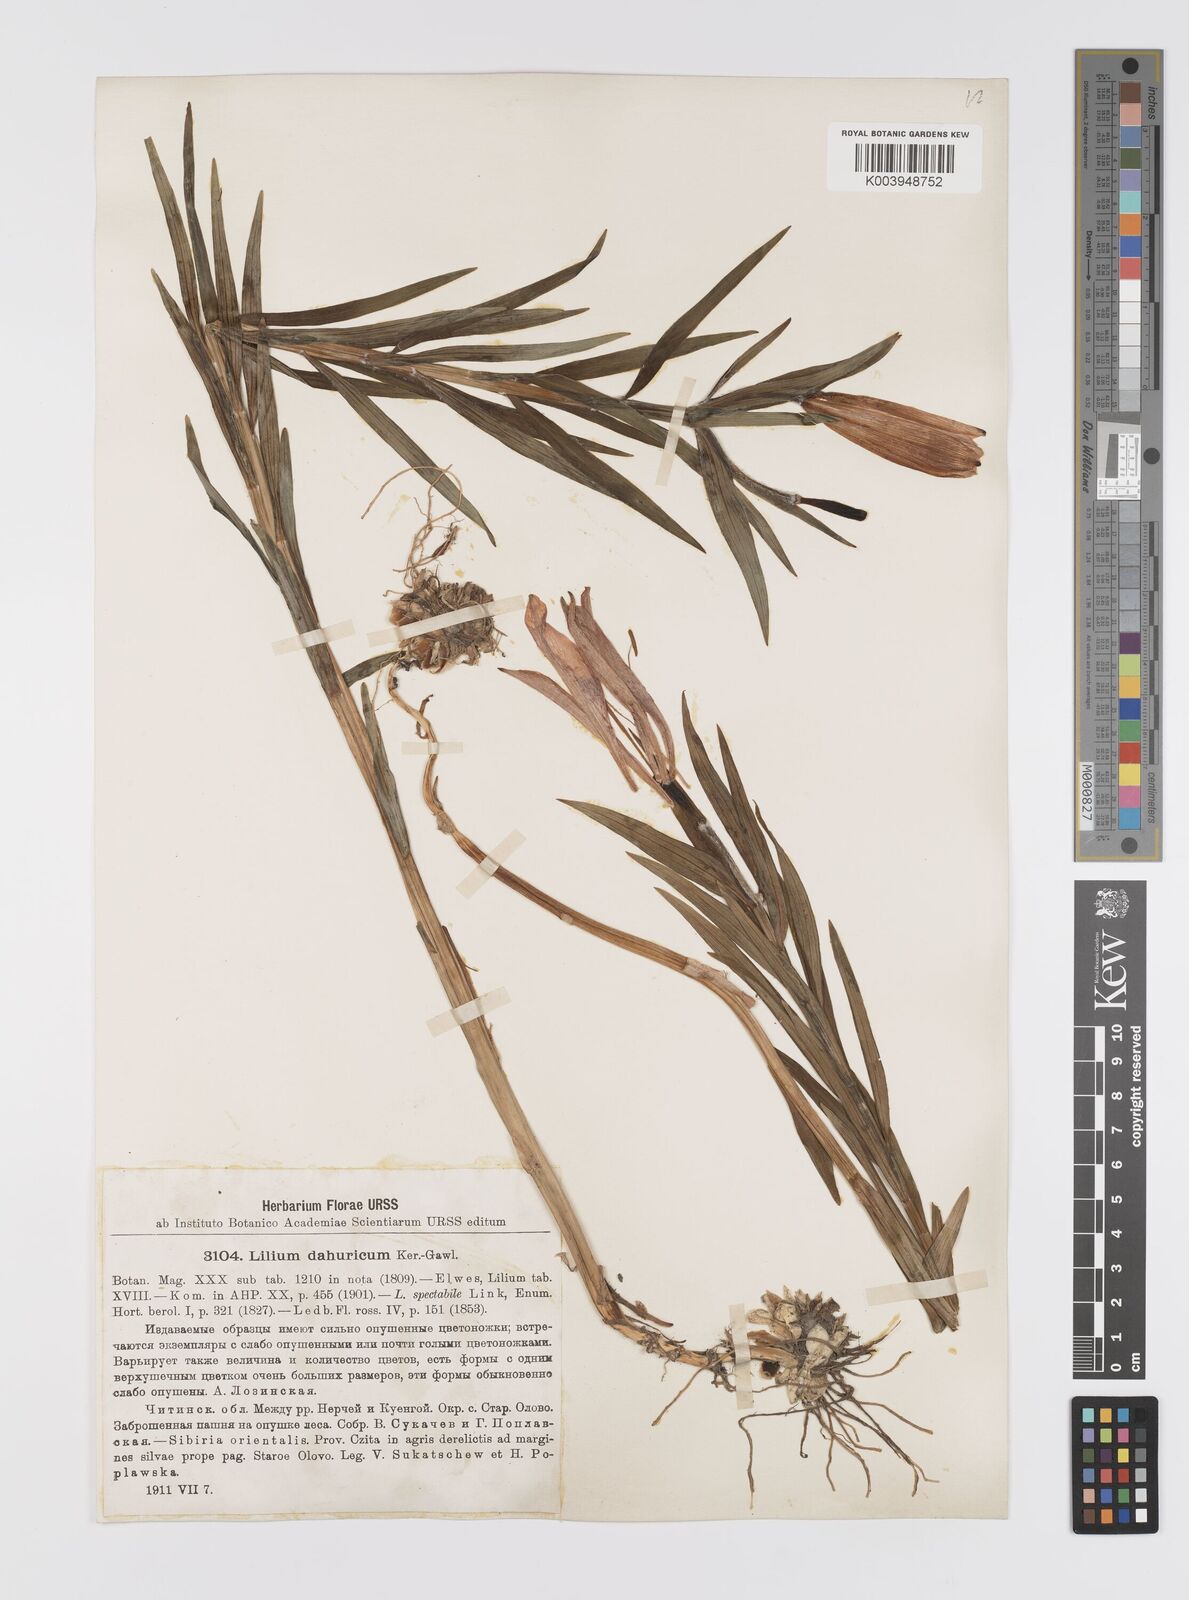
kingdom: Plantae
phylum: Tracheophyta
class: Liliopsida
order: Liliales
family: Liliaceae
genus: Lilium
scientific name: Lilium pensylvanicum
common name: Candlestick lily
